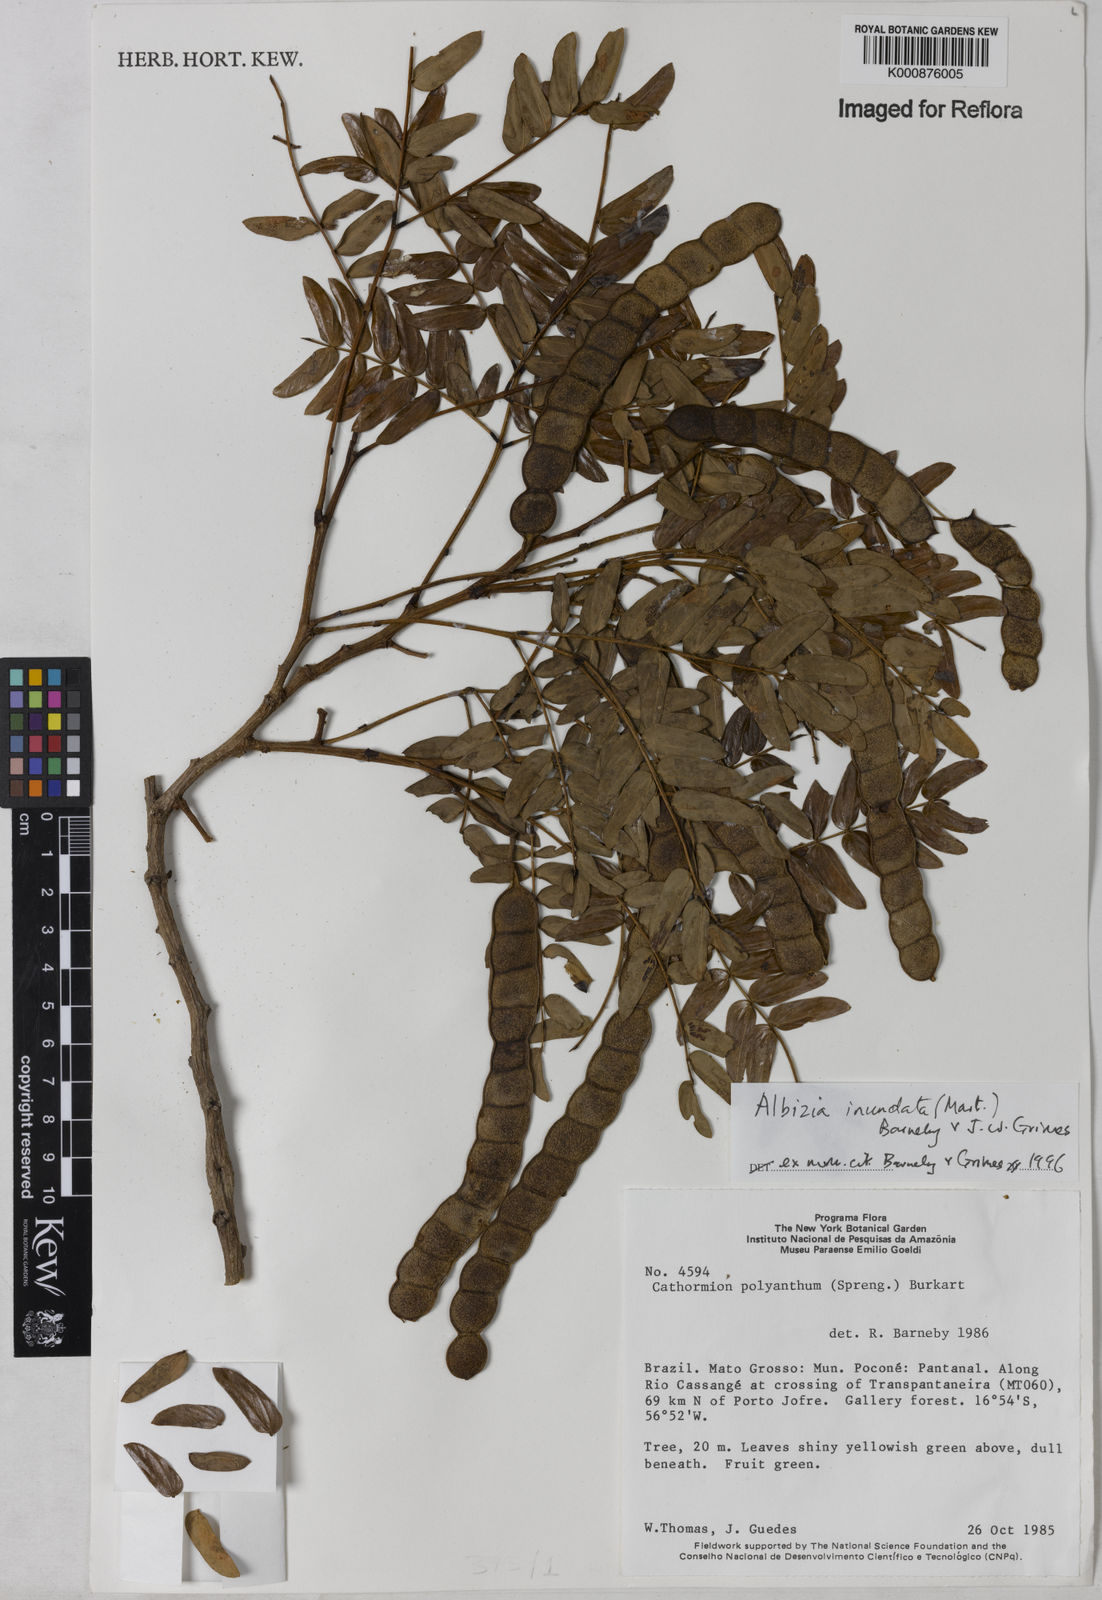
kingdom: Plantae
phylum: Tracheophyta
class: Magnoliopsida
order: Fabales
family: Fabaceae
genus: Albizia
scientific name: Albizia inundata
